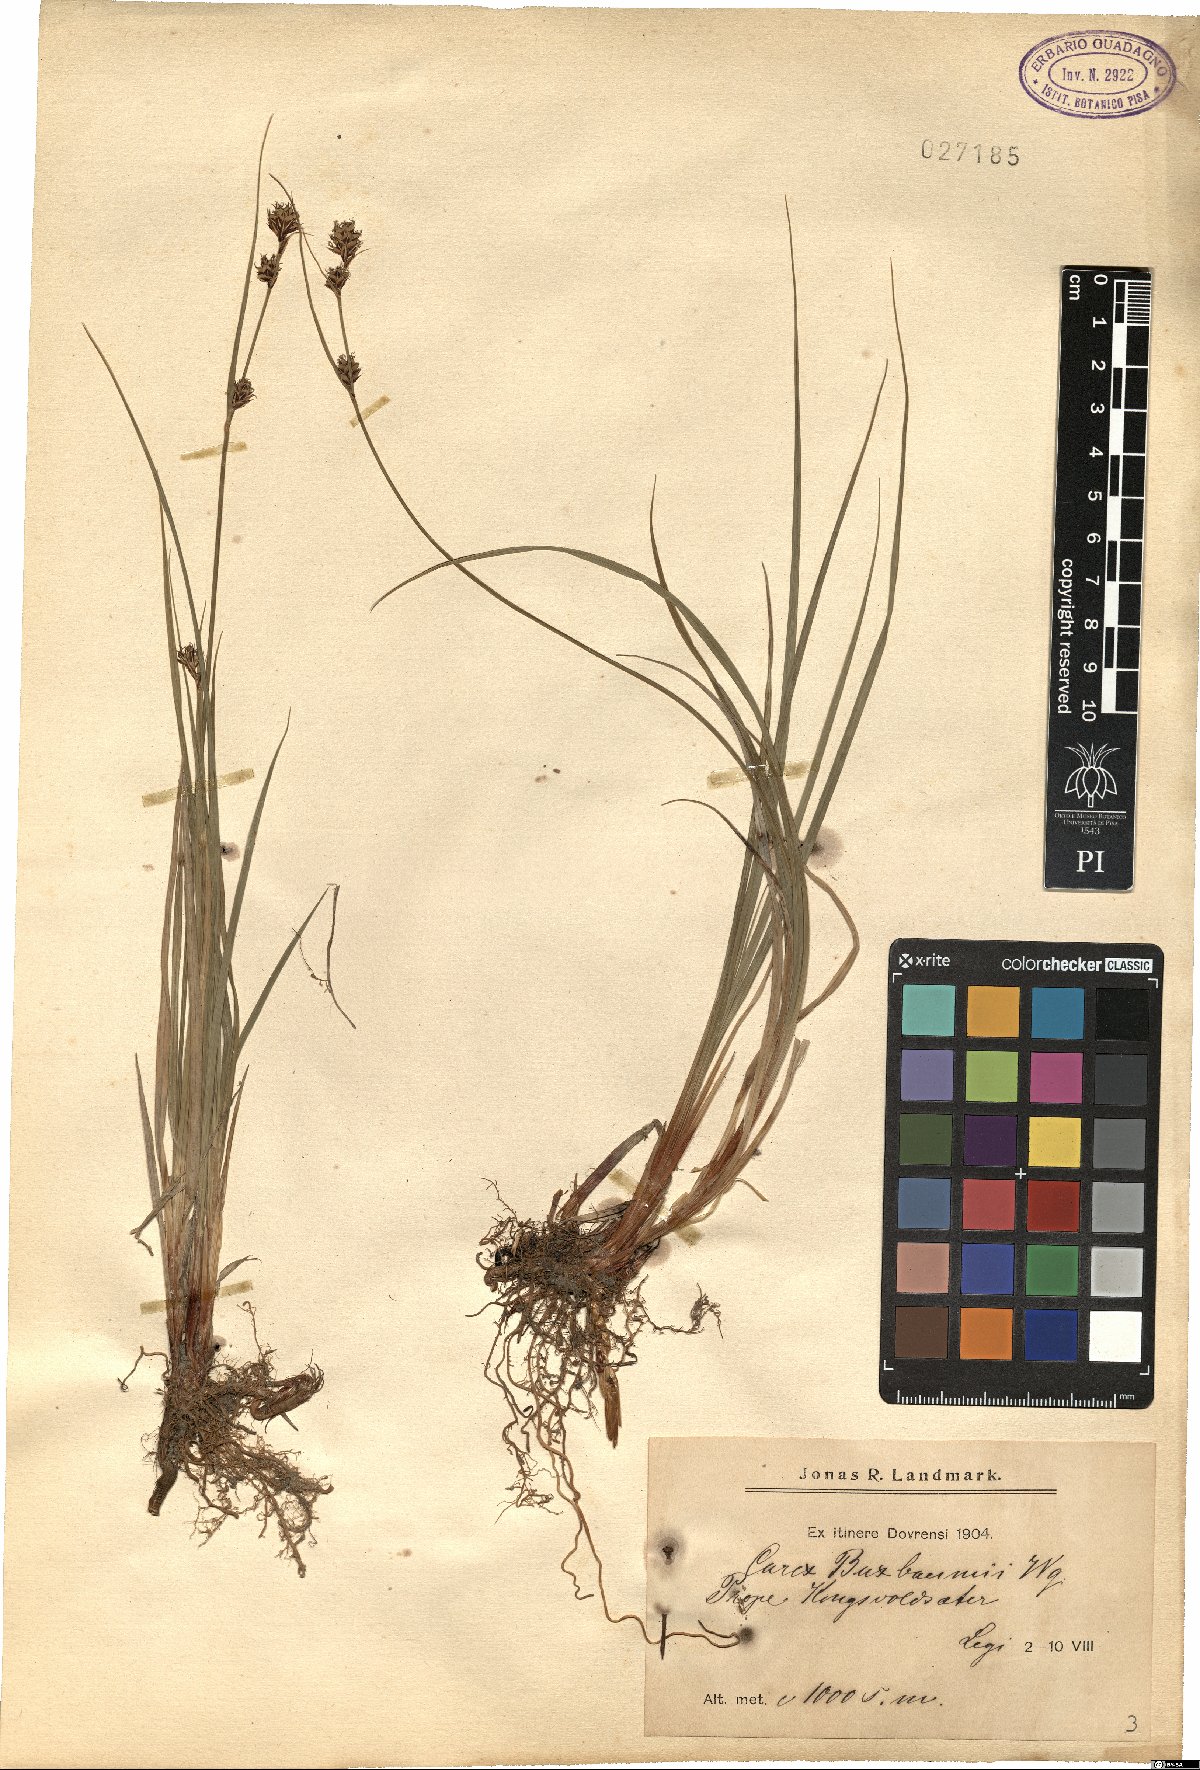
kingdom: Plantae
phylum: Tracheophyta
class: Liliopsida
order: Poales
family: Cyperaceae
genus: Carex
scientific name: Carex buxbaumii
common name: Club sedge
